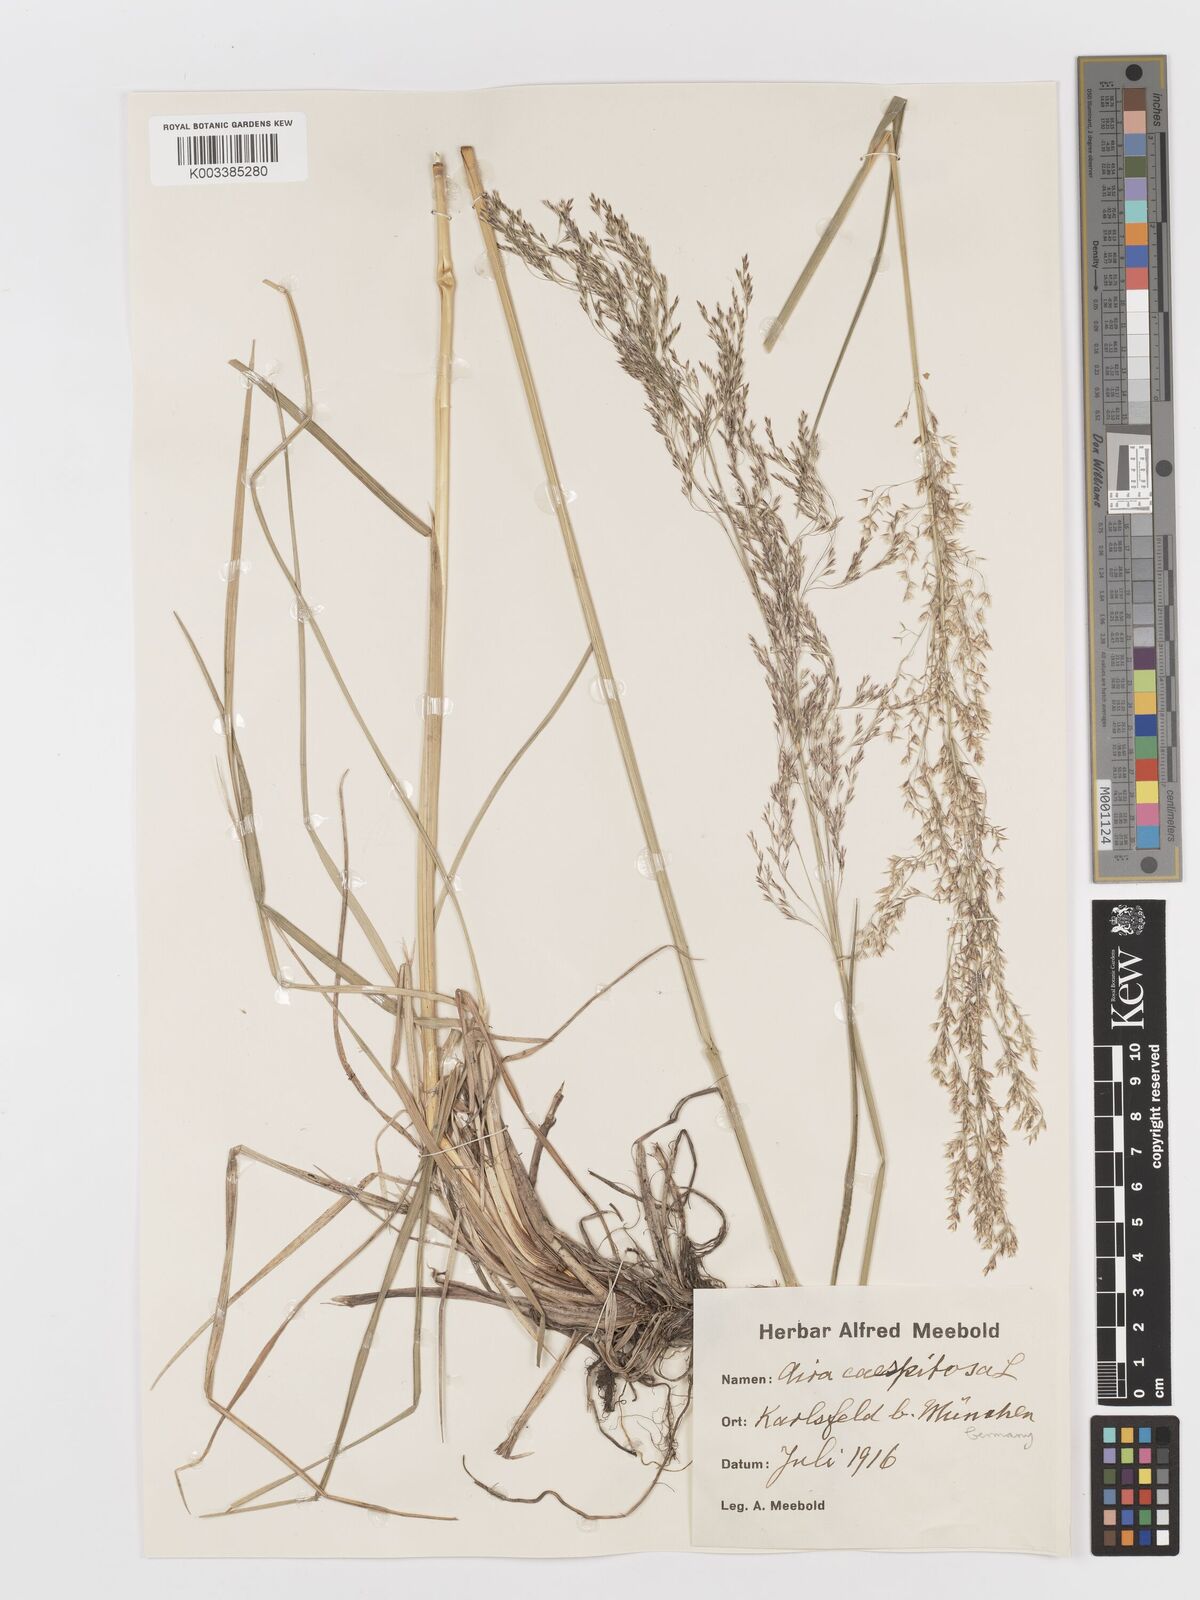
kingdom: Plantae
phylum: Tracheophyta
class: Liliopsida
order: Poales
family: Poaceae
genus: Deschampsia
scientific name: Deschampsia cespitosa
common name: Tufted hair-grass
